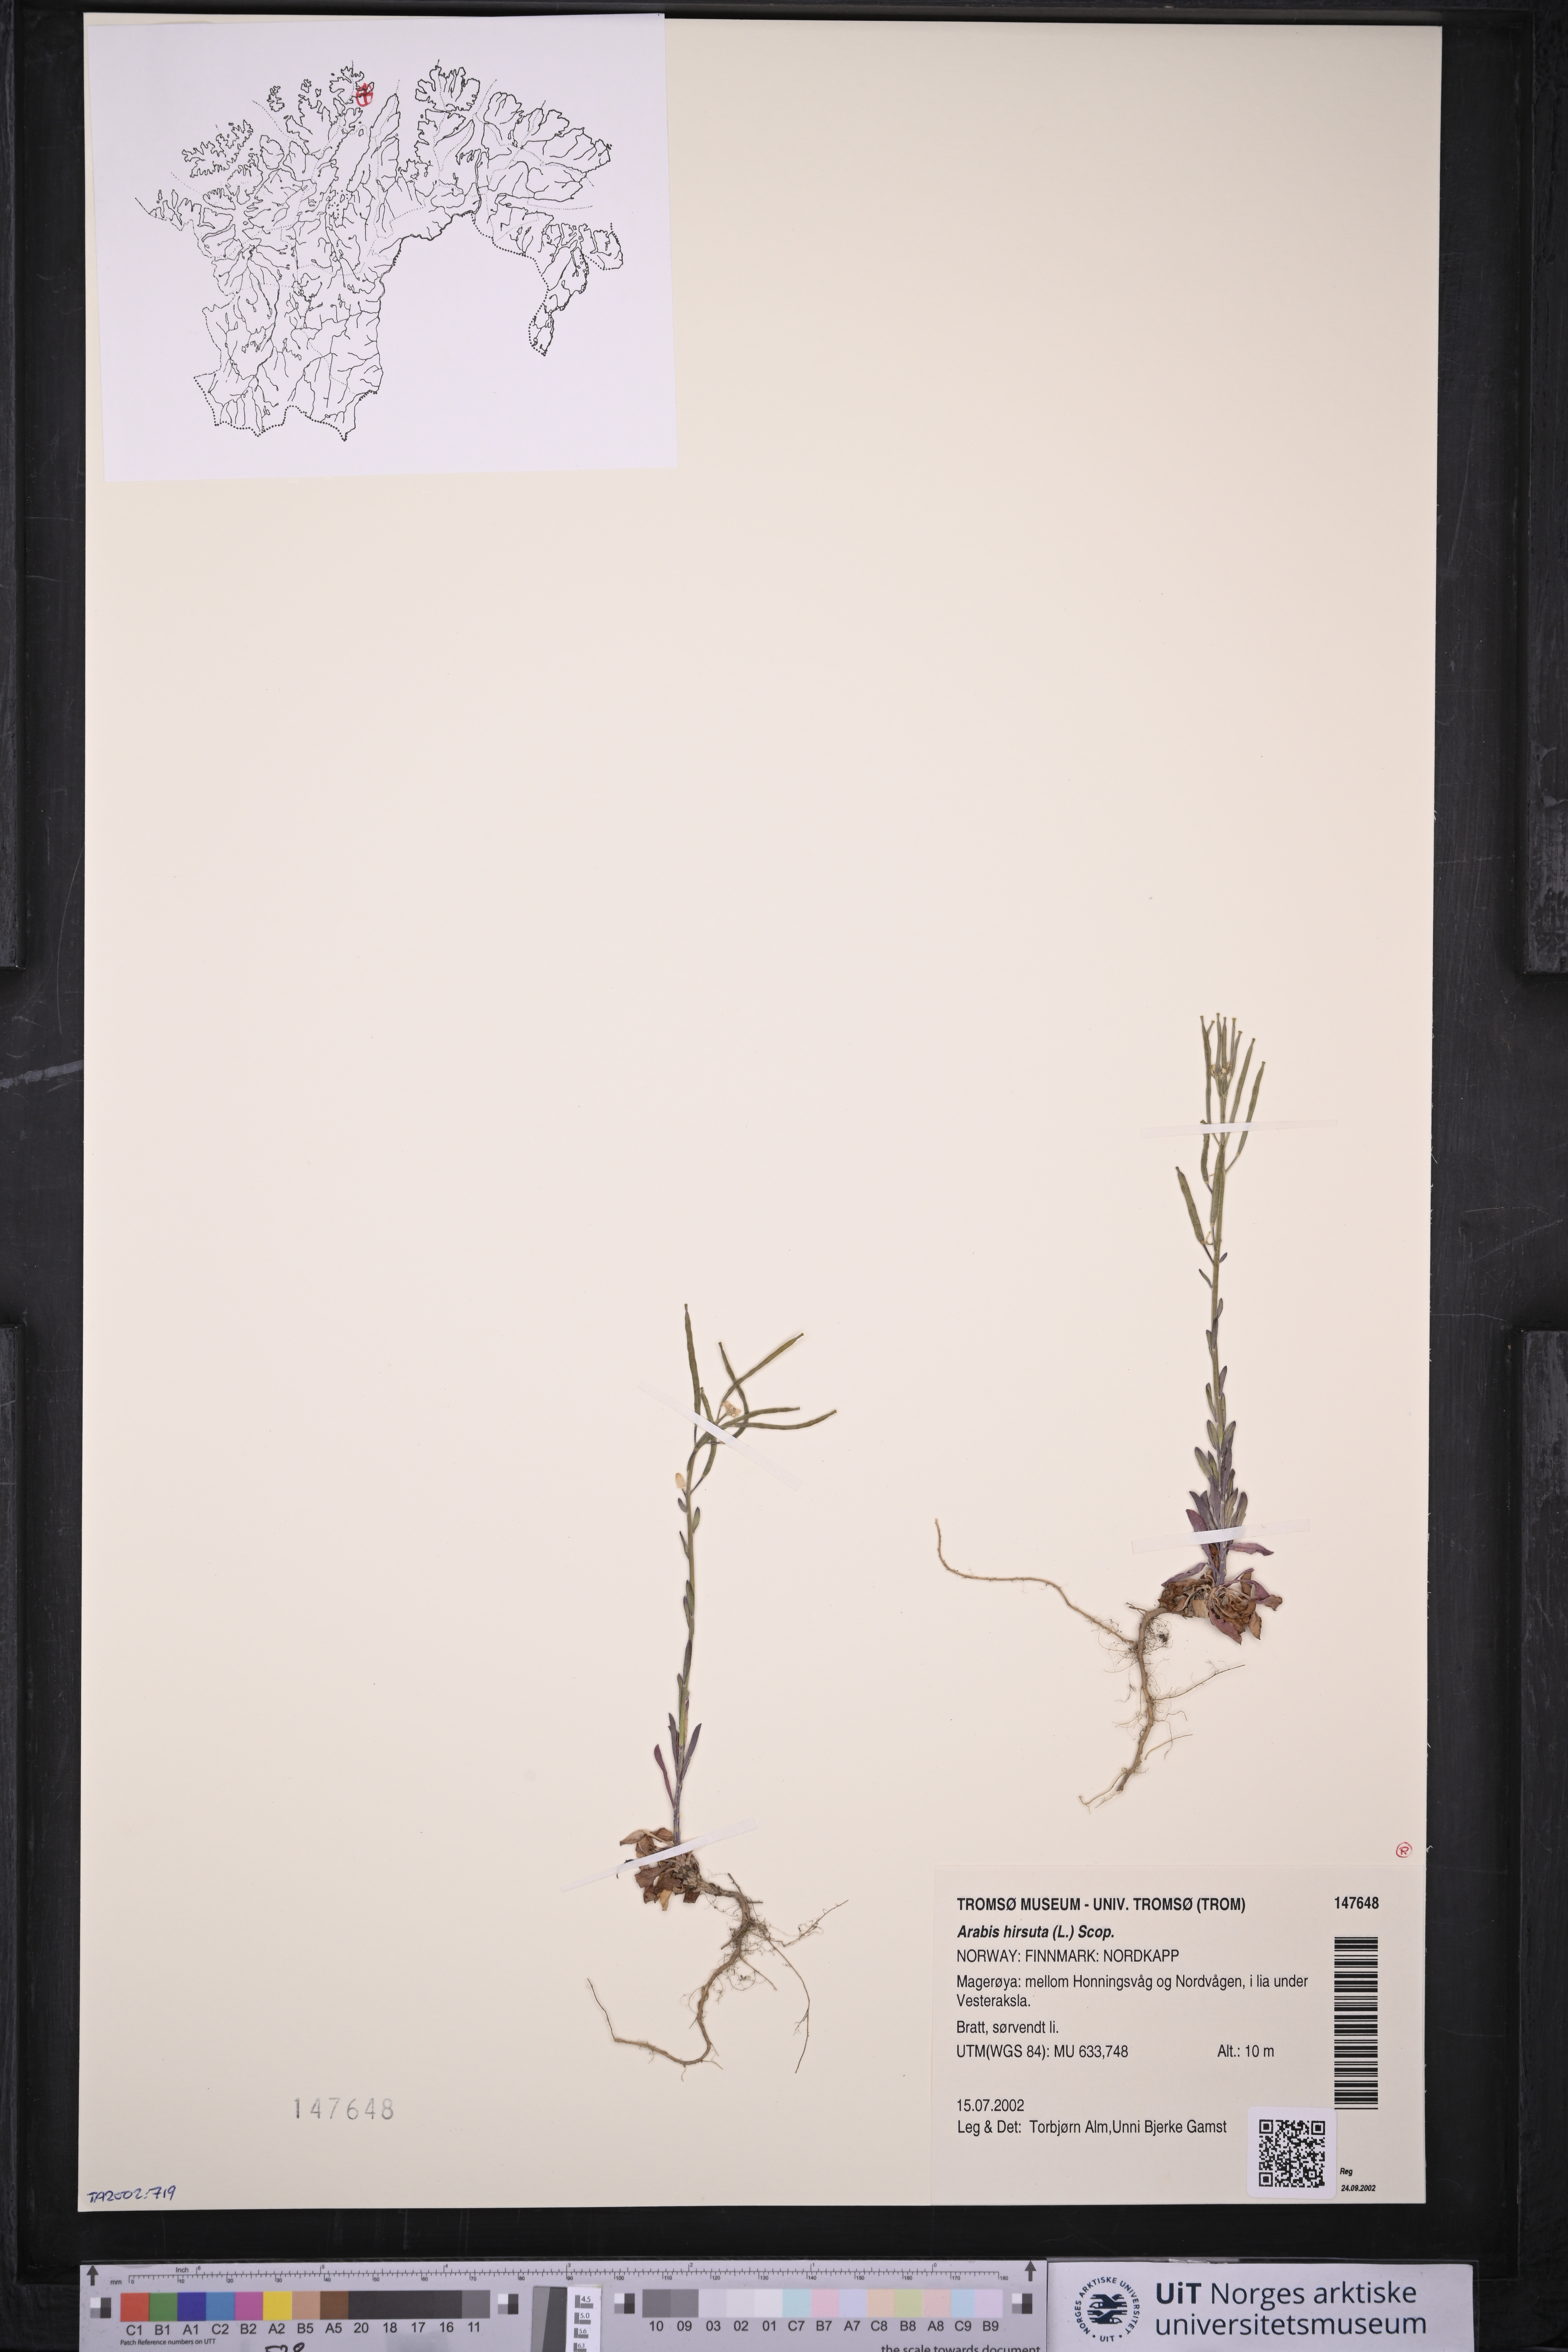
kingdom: Plantae
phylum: Tracheophyta
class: Magnoliopsida
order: Brassicales
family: Brassicaceae
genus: Arabis
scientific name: Arabis hirsuta
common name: Hairy rock-cress
